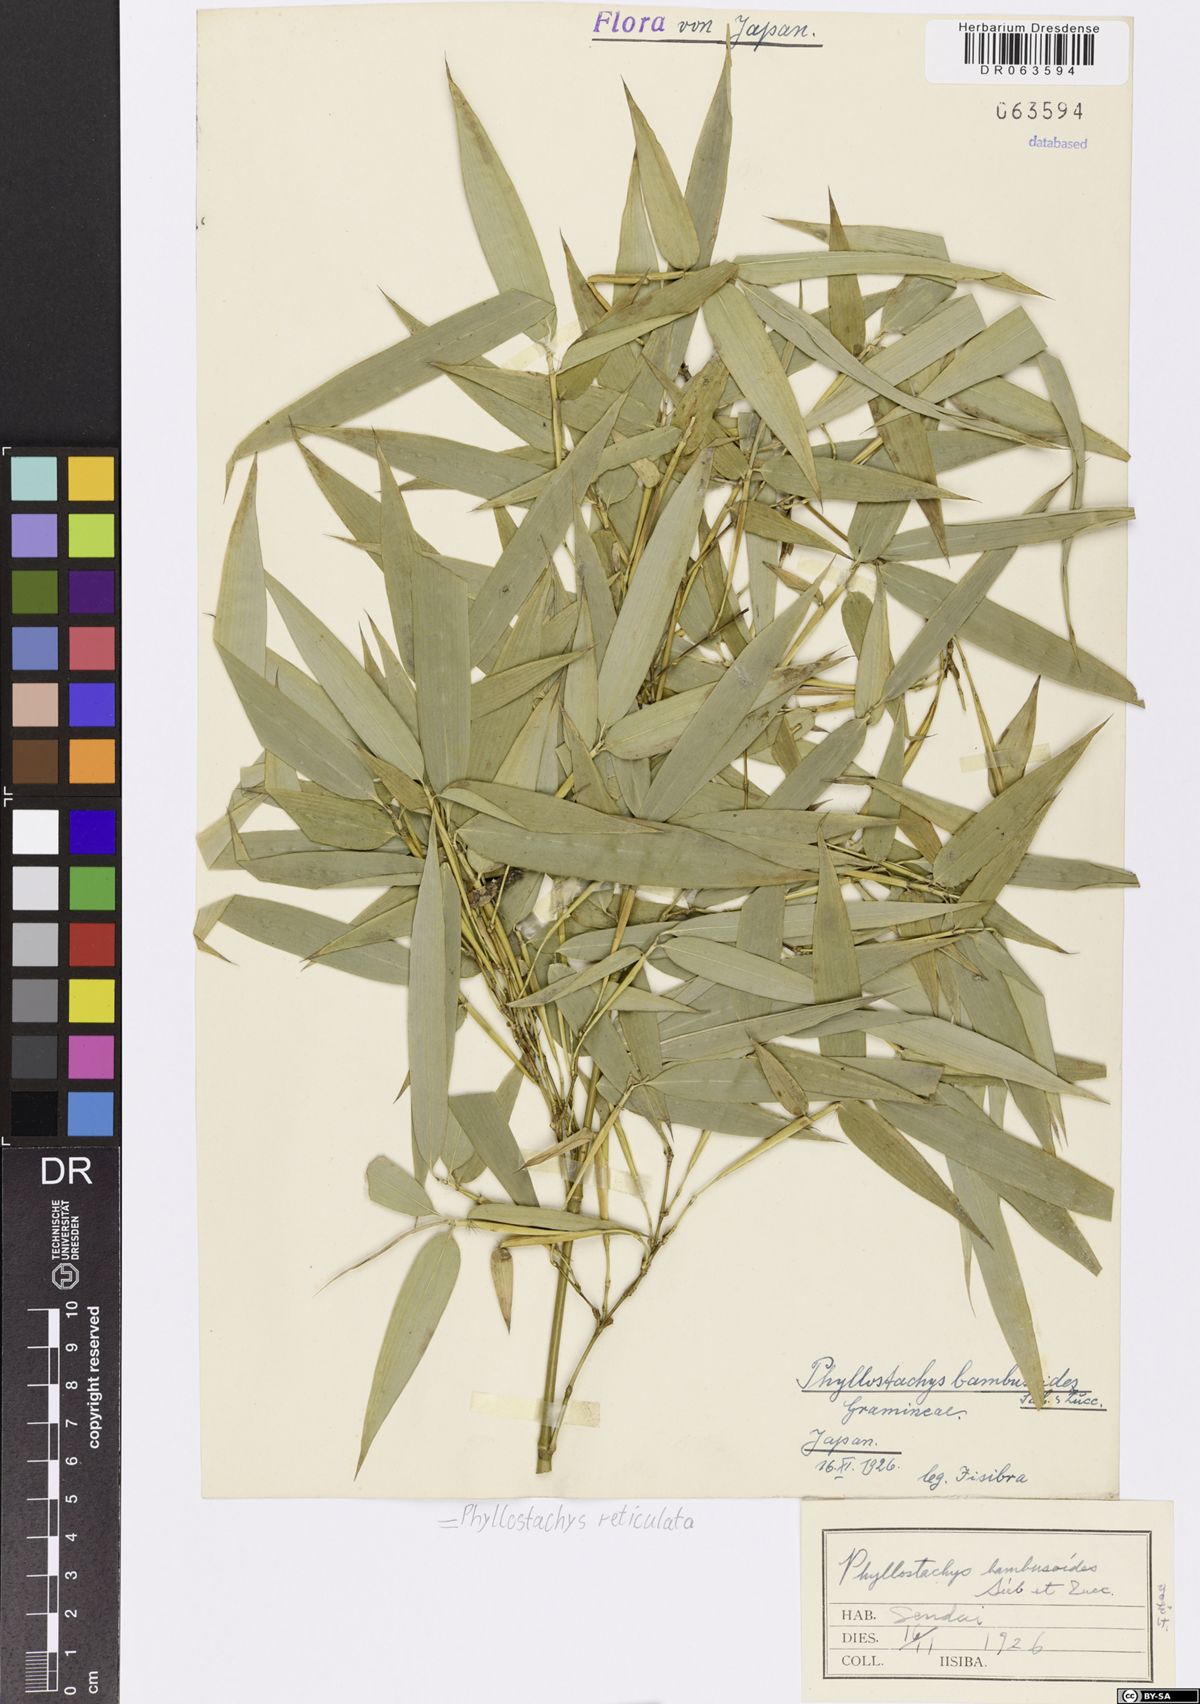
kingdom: Plantae
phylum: Tracheophyta
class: Liliopsida
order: Poales
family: Poaceae
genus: Phyllostachys
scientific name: Phyllostachys reticulata
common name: Bamboo
